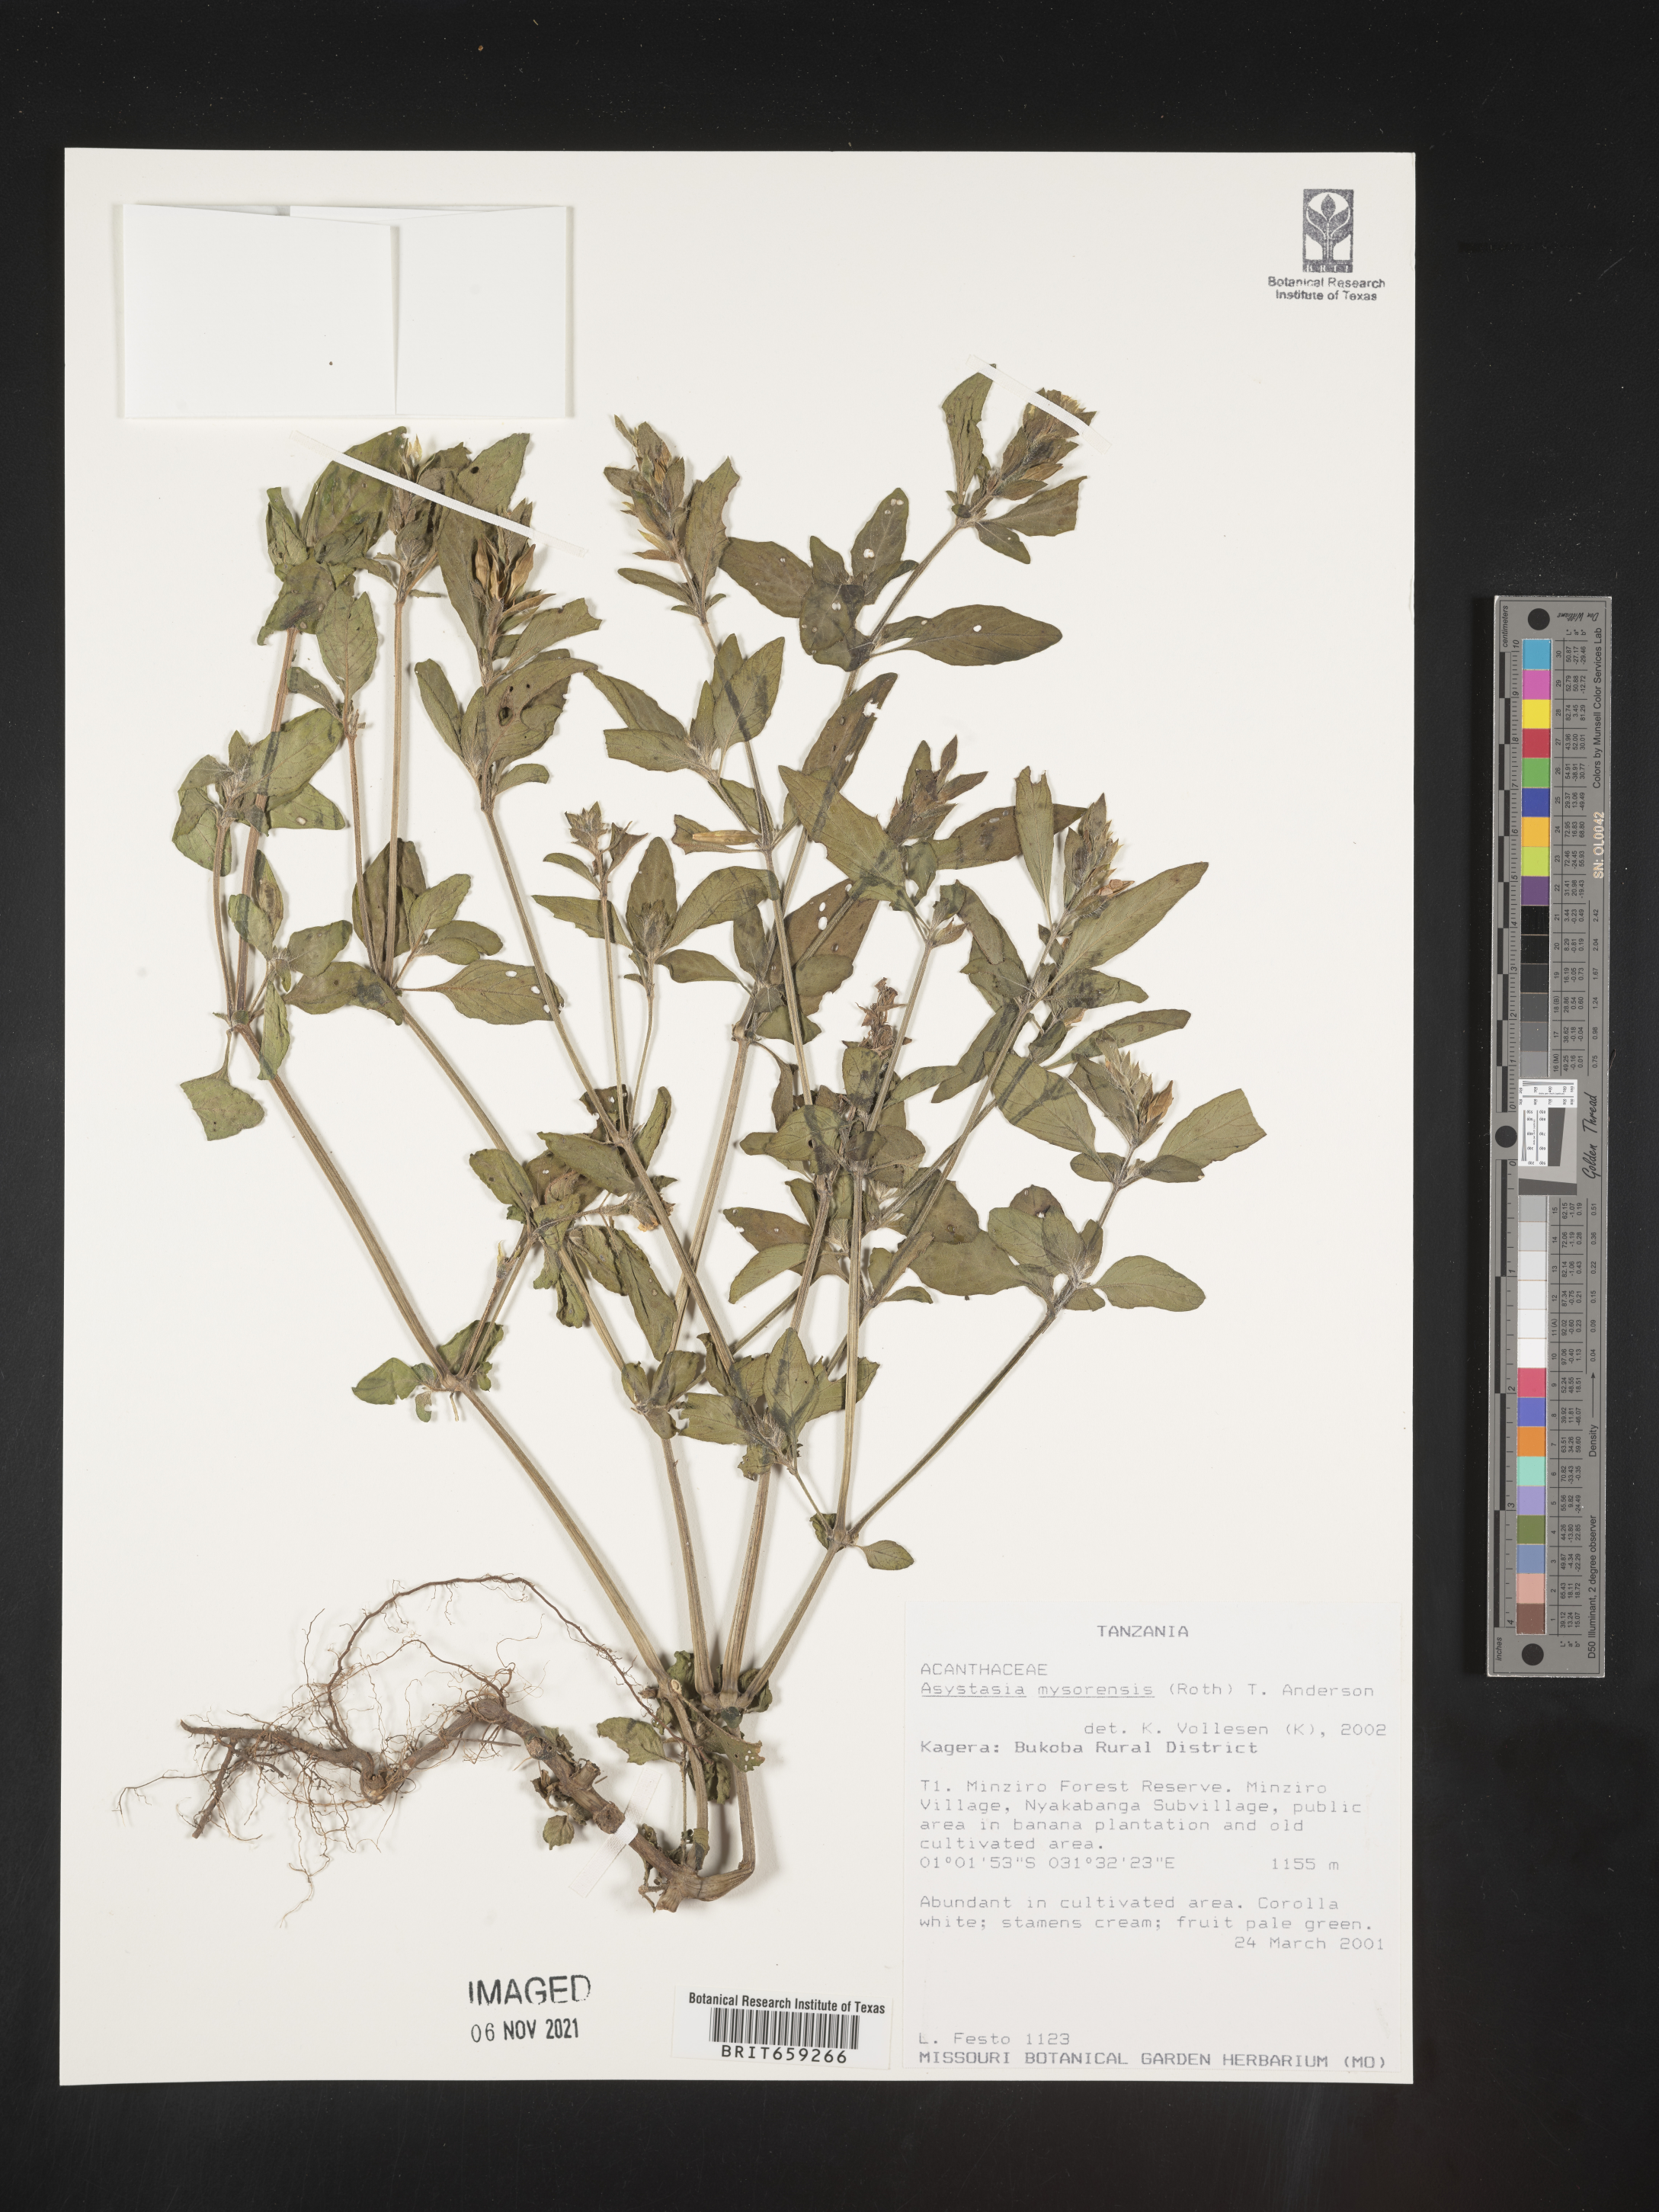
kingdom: Plantae
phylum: Tracheophyta
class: Magnoliopsida
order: Lamiales
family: Acanthaceae
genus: Asystasia
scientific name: Asystasia mysorensis
